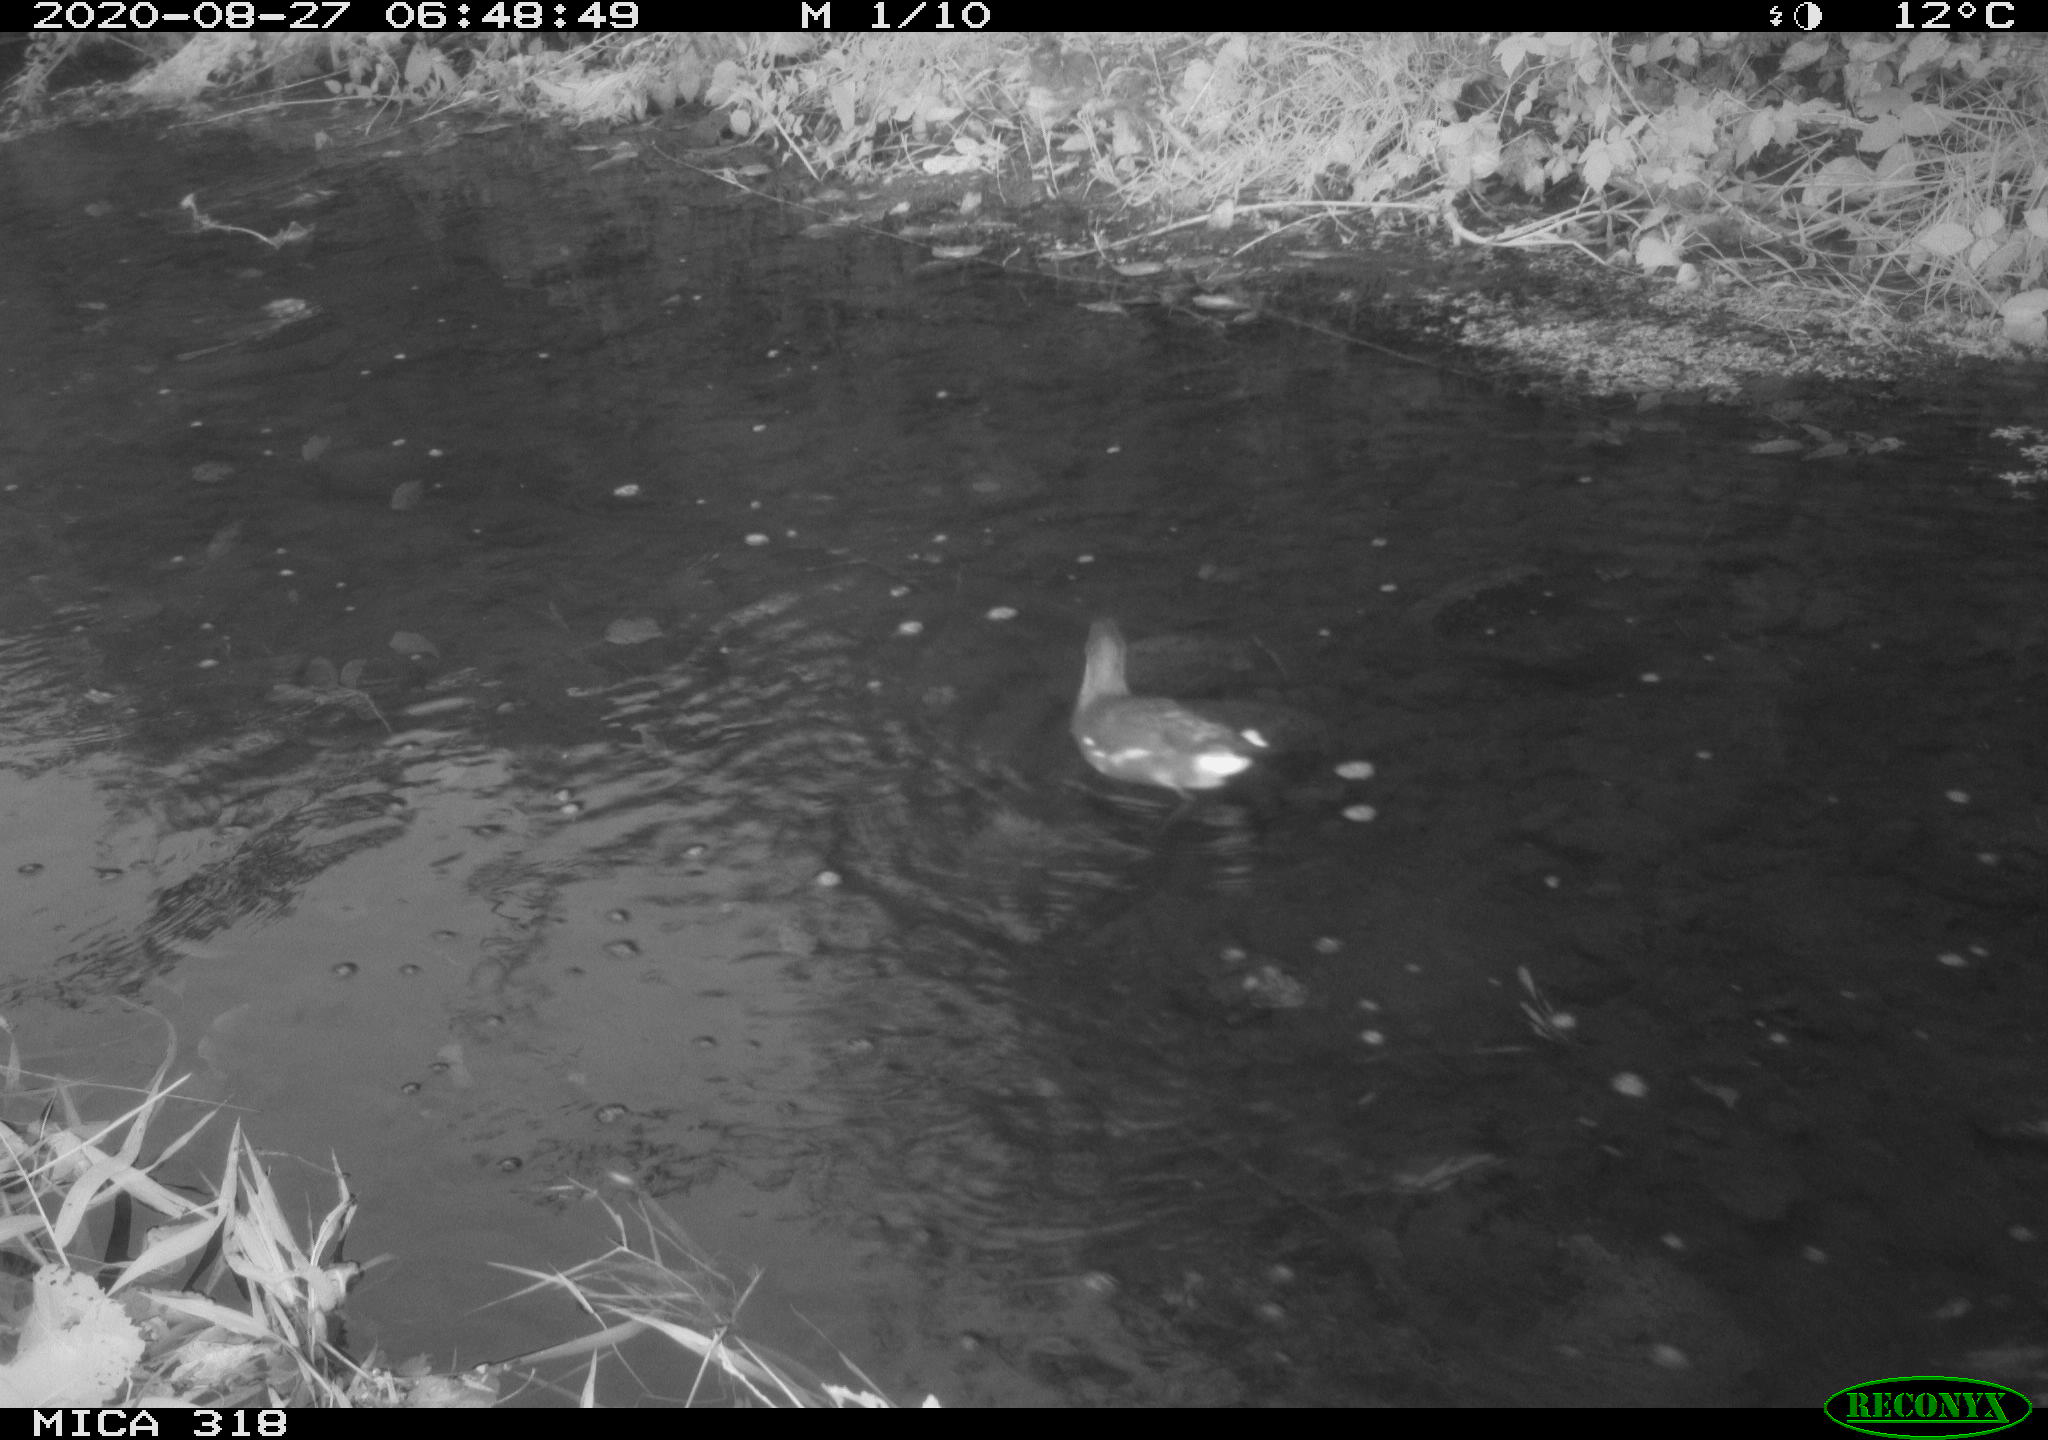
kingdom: Animalia
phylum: Chordata
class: Aves
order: Gruiformes
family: Rallidae
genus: Gallinula
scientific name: Gallinula chloropus
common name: Common moorhen
